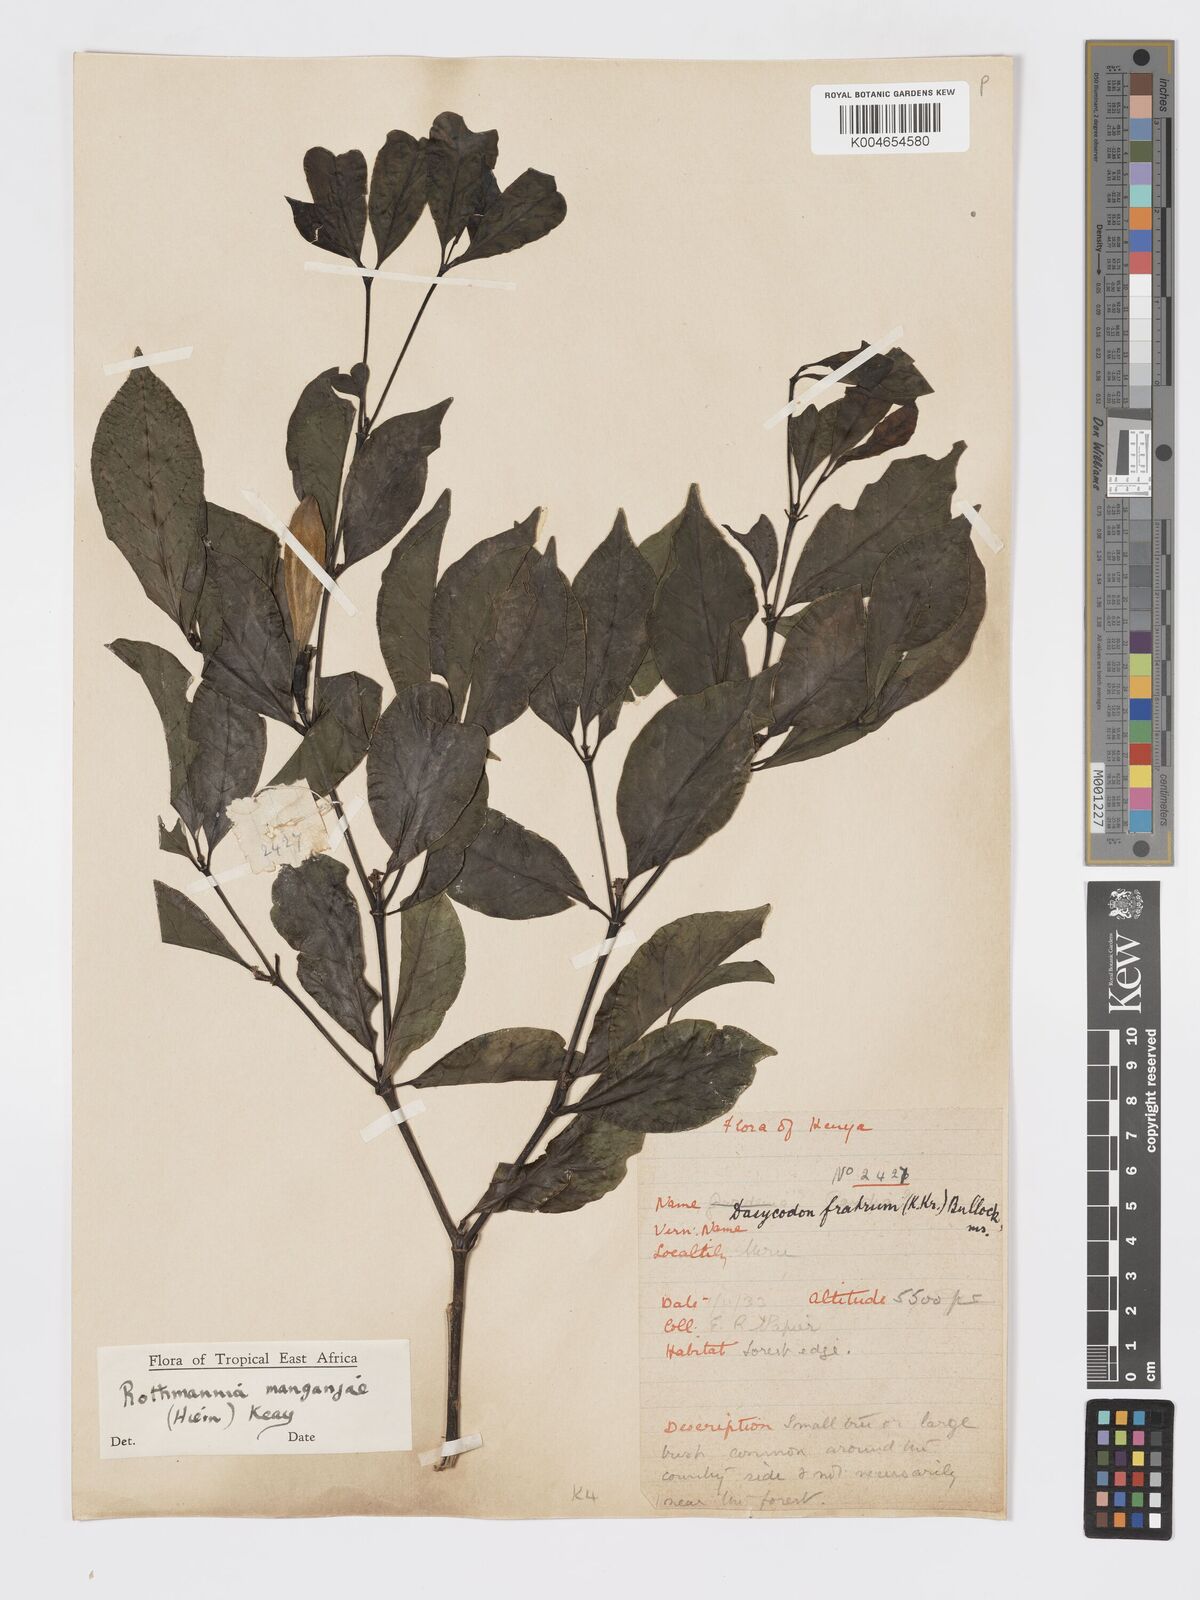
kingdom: Plantae
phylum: Tracheophyta
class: Magnoliopsida
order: Gentianales
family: Rubiaceae
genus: Rothmannia
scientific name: Rothmannia manganjae
